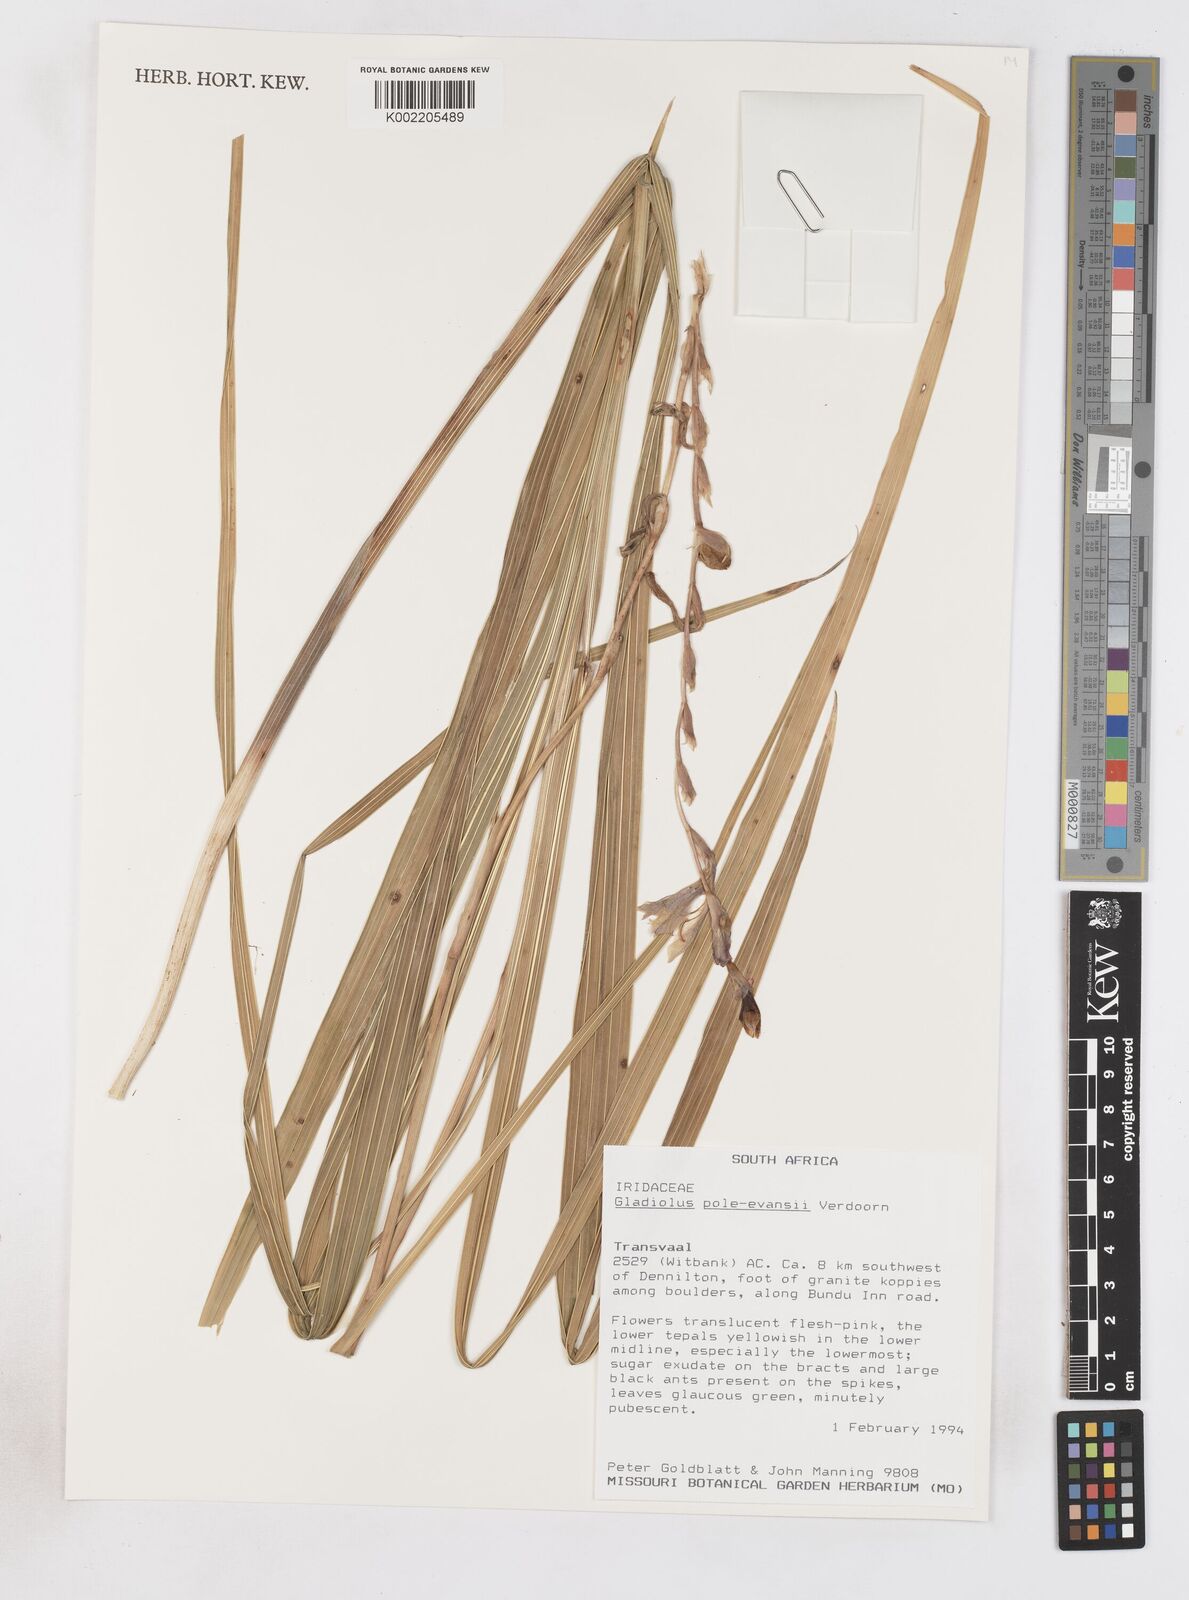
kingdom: Plantae
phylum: Tracheophyta
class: Liliopsida
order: Asparagales
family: Iridaceae
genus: Gladiolus
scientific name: Gladiolus pole-evansii
